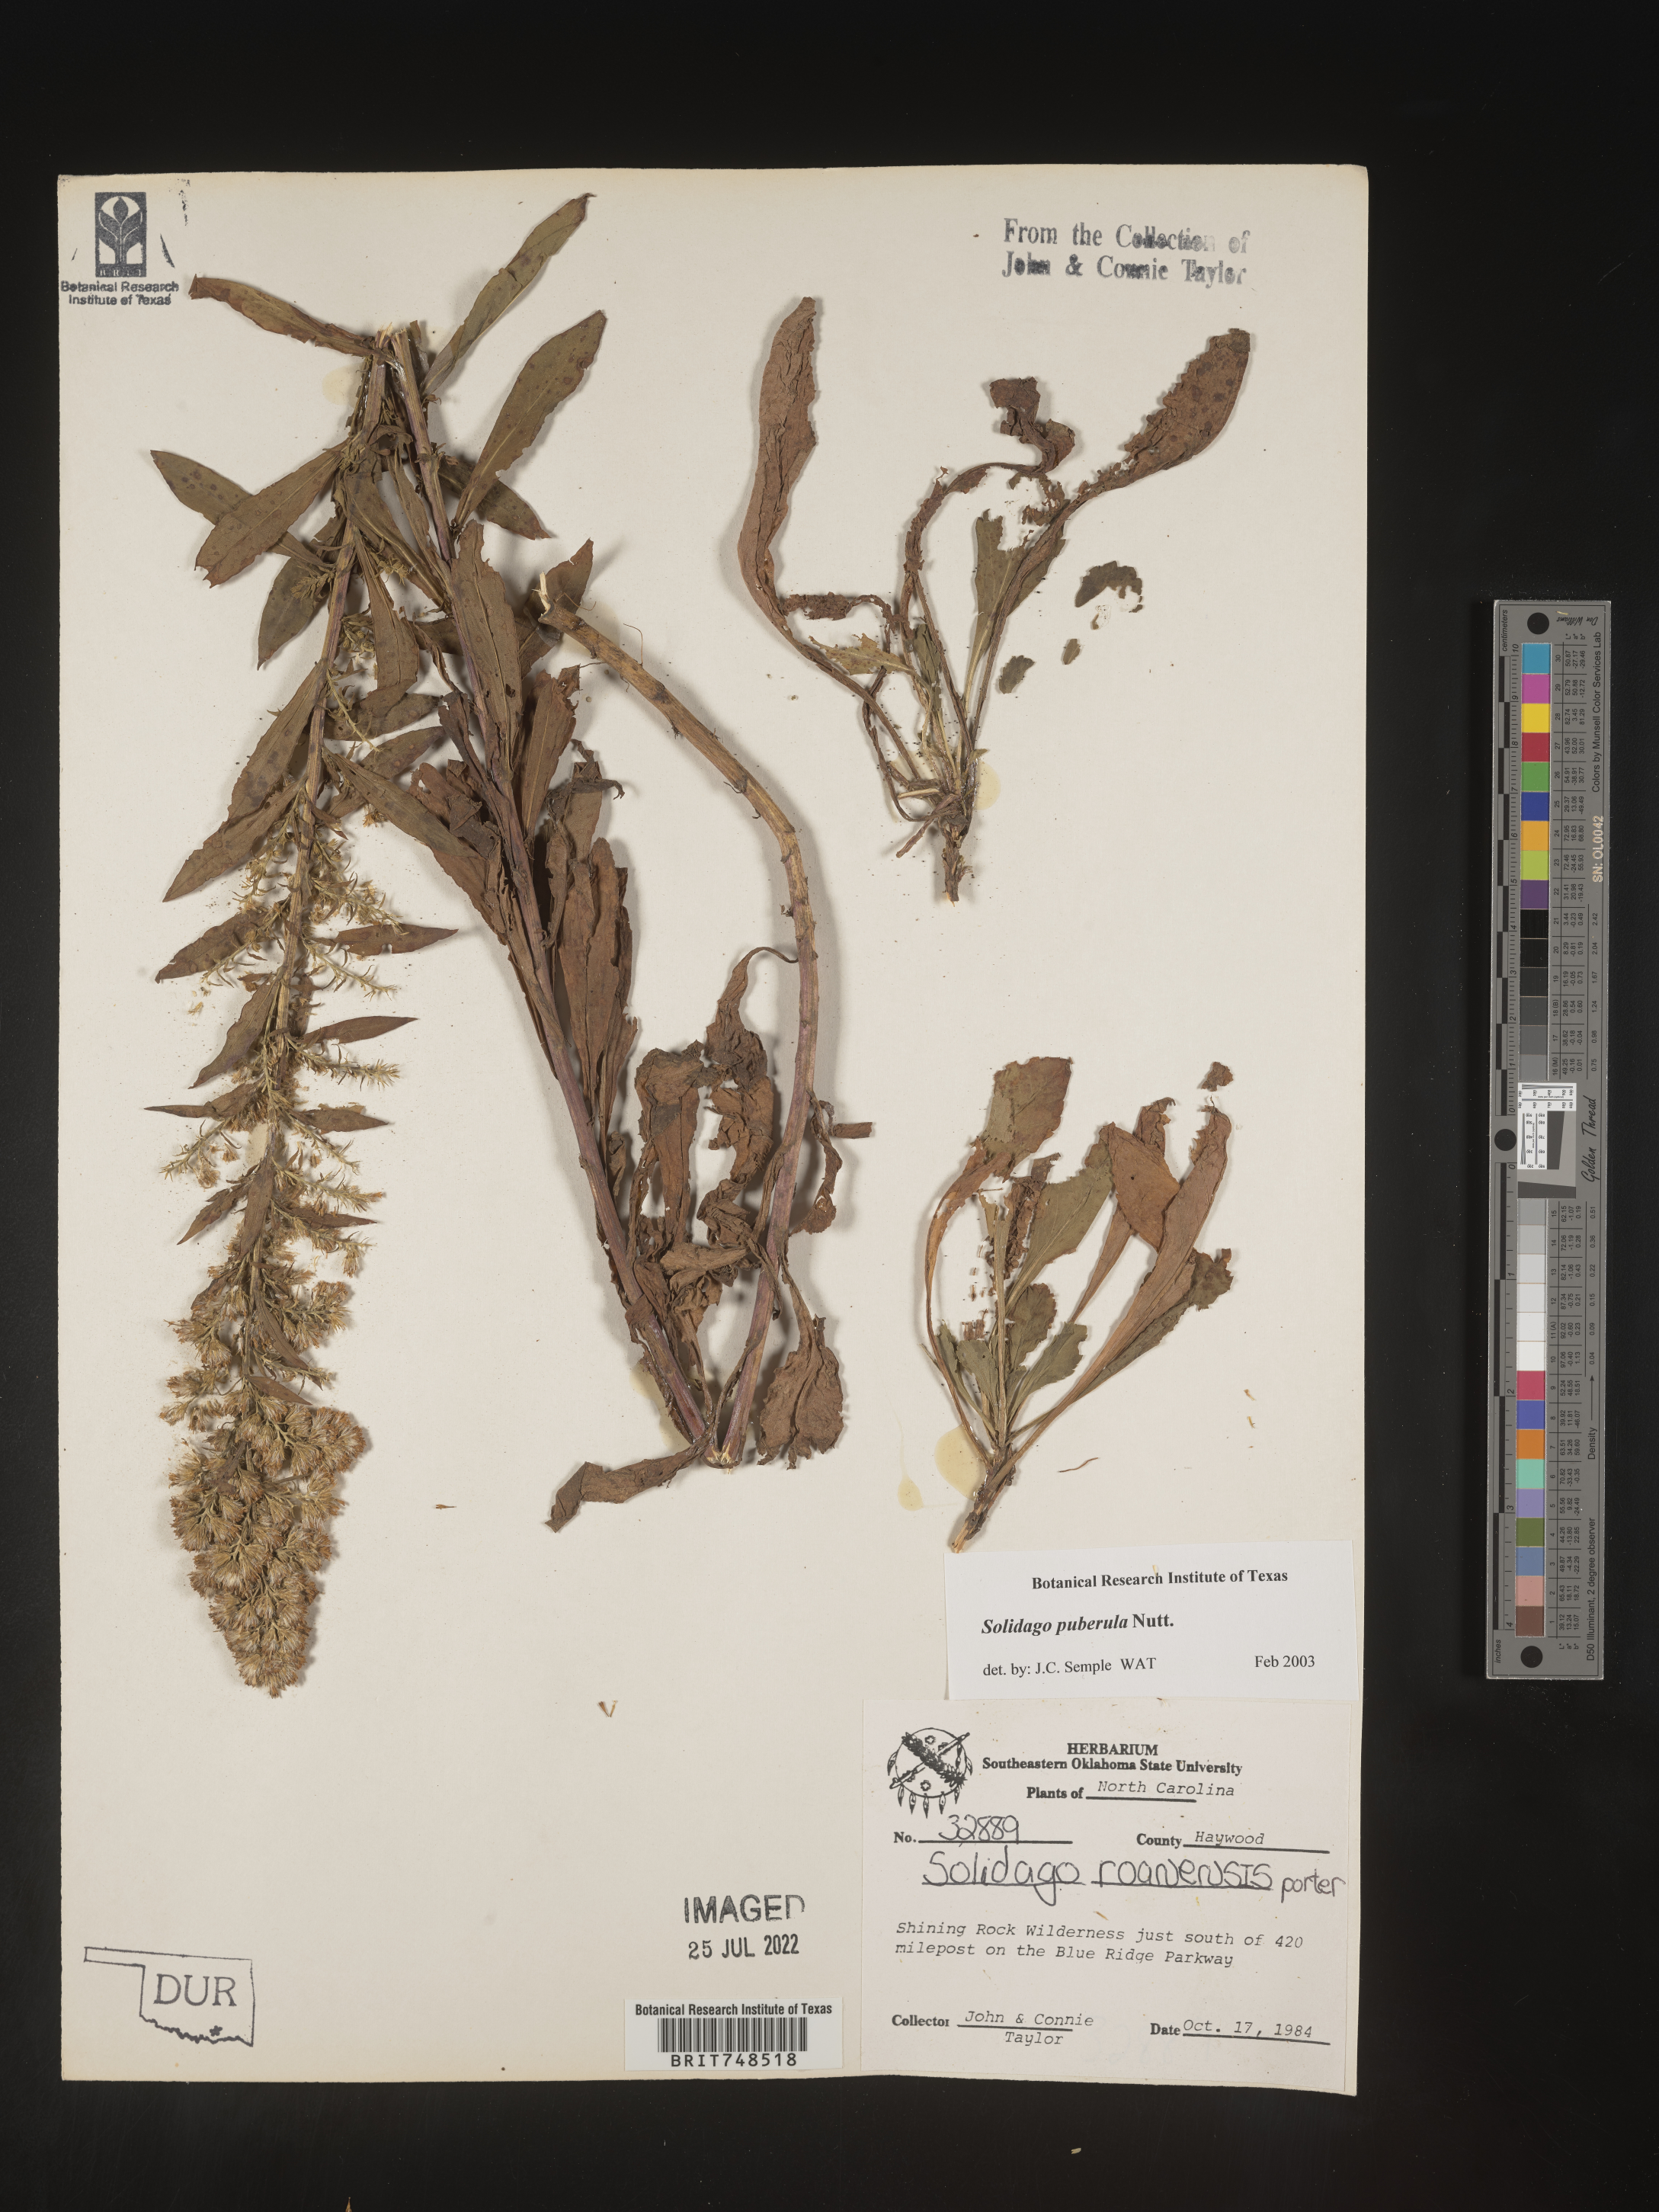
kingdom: Plantae
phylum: Tracheophyta
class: Magnoliopsida
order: Asterales
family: Asteraceae
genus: Solidago
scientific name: Solidago puberula
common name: Downy goldenrod
